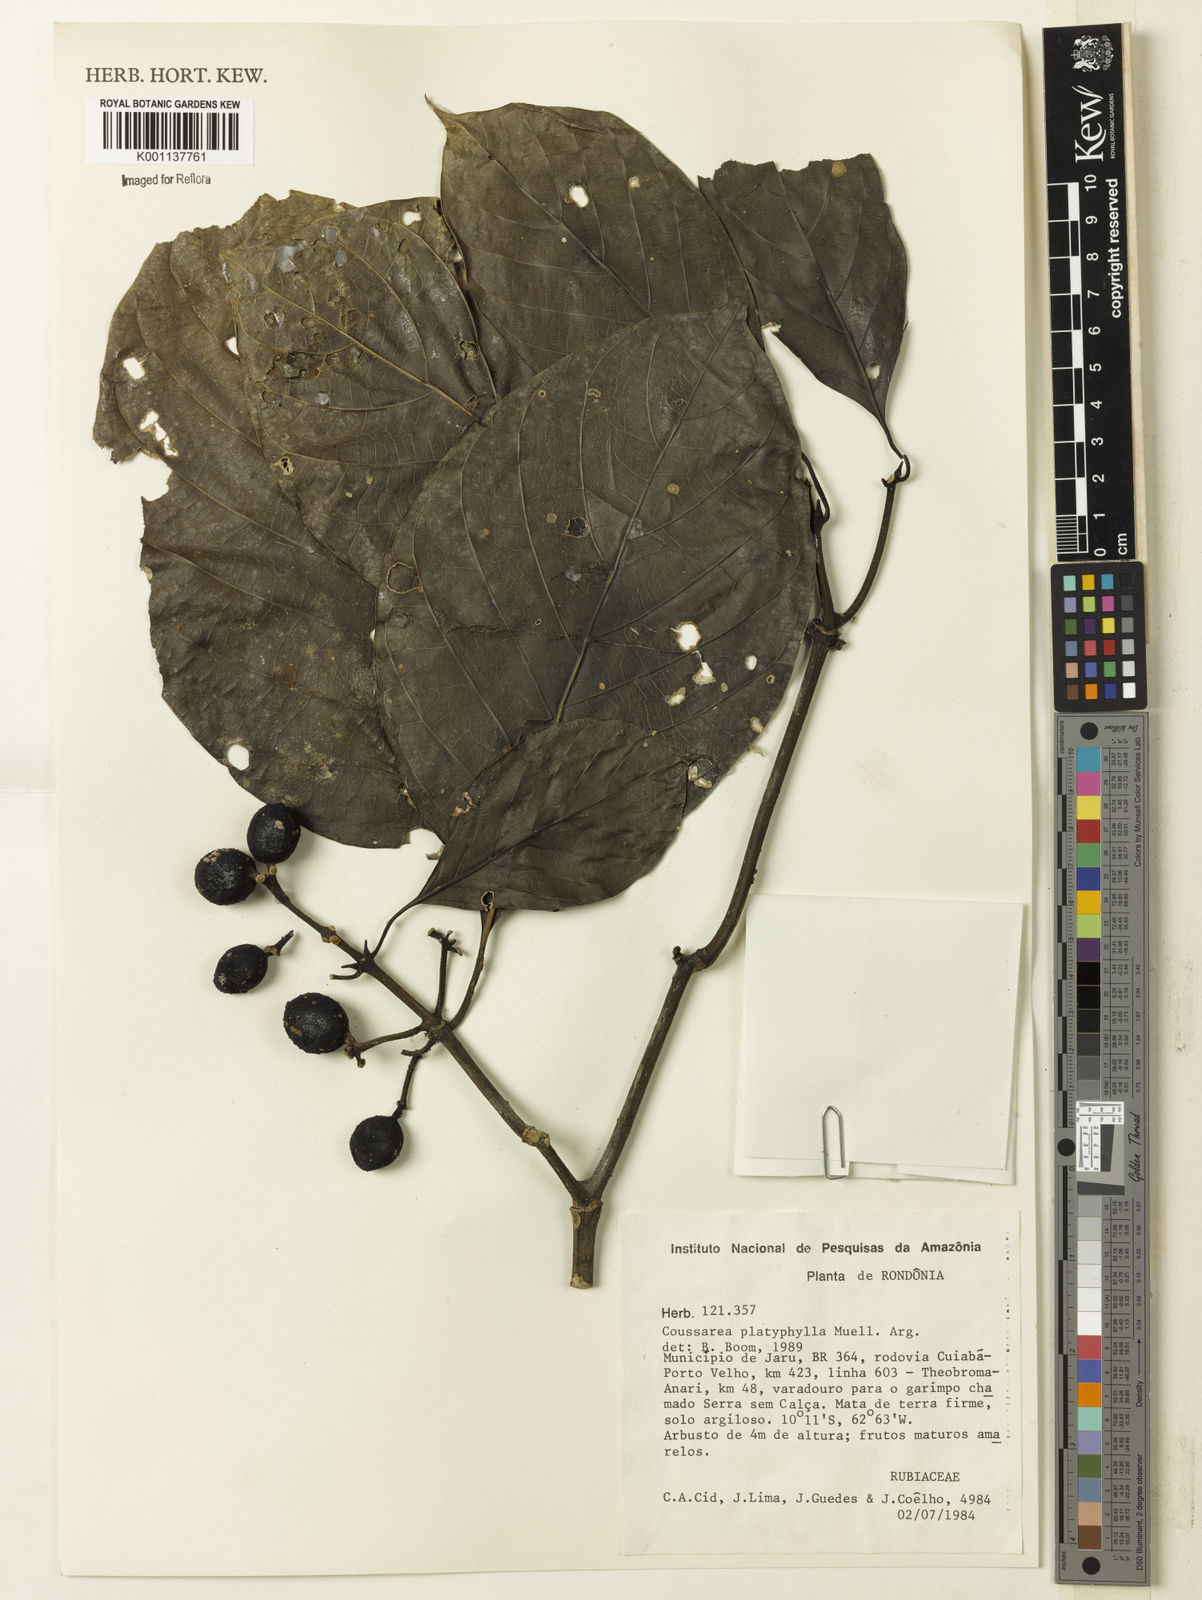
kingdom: Plantae
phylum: Tracheophyta
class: Magnoliopsida
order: Gentianales
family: Rubiaceae
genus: Coussarea
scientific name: Coussarea
